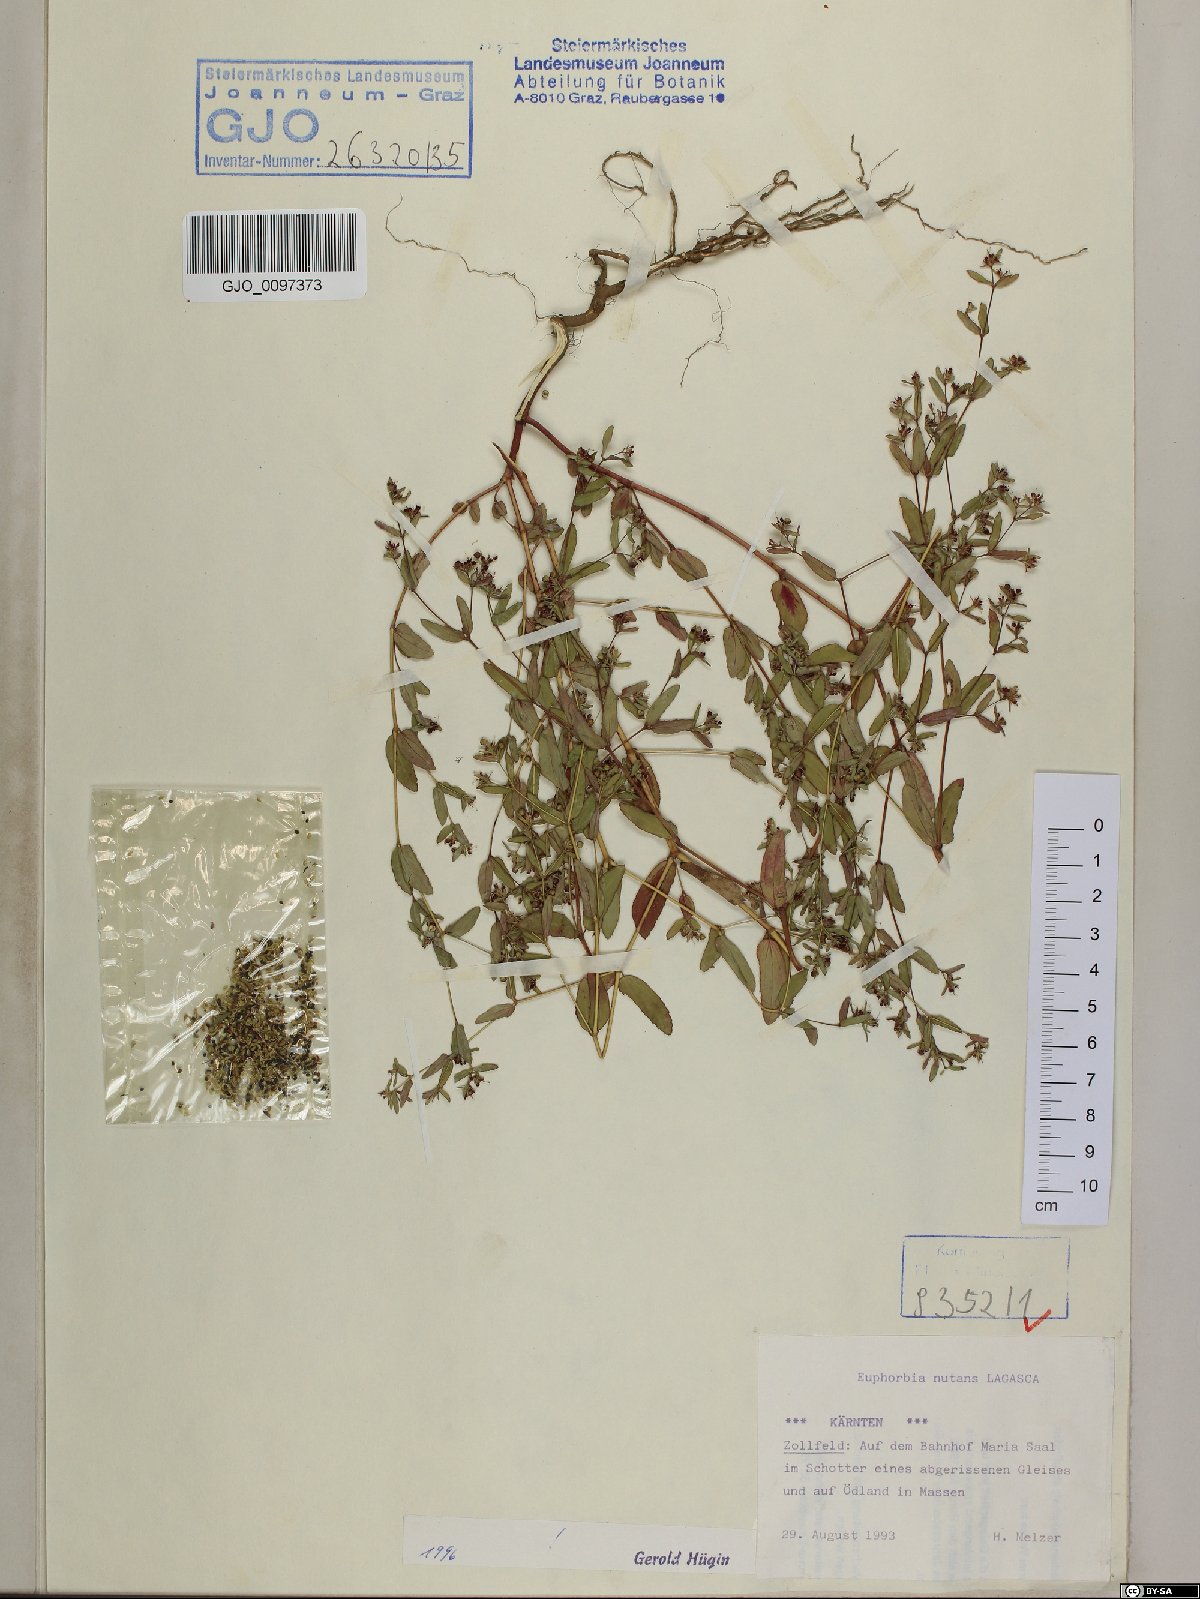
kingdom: Plantae
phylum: Tracheophyta
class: Magnoliopsida
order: Malpighiales
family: Euphorbiaceae
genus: Euphorbia
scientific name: Euphorbia nutans
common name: Eyebane
